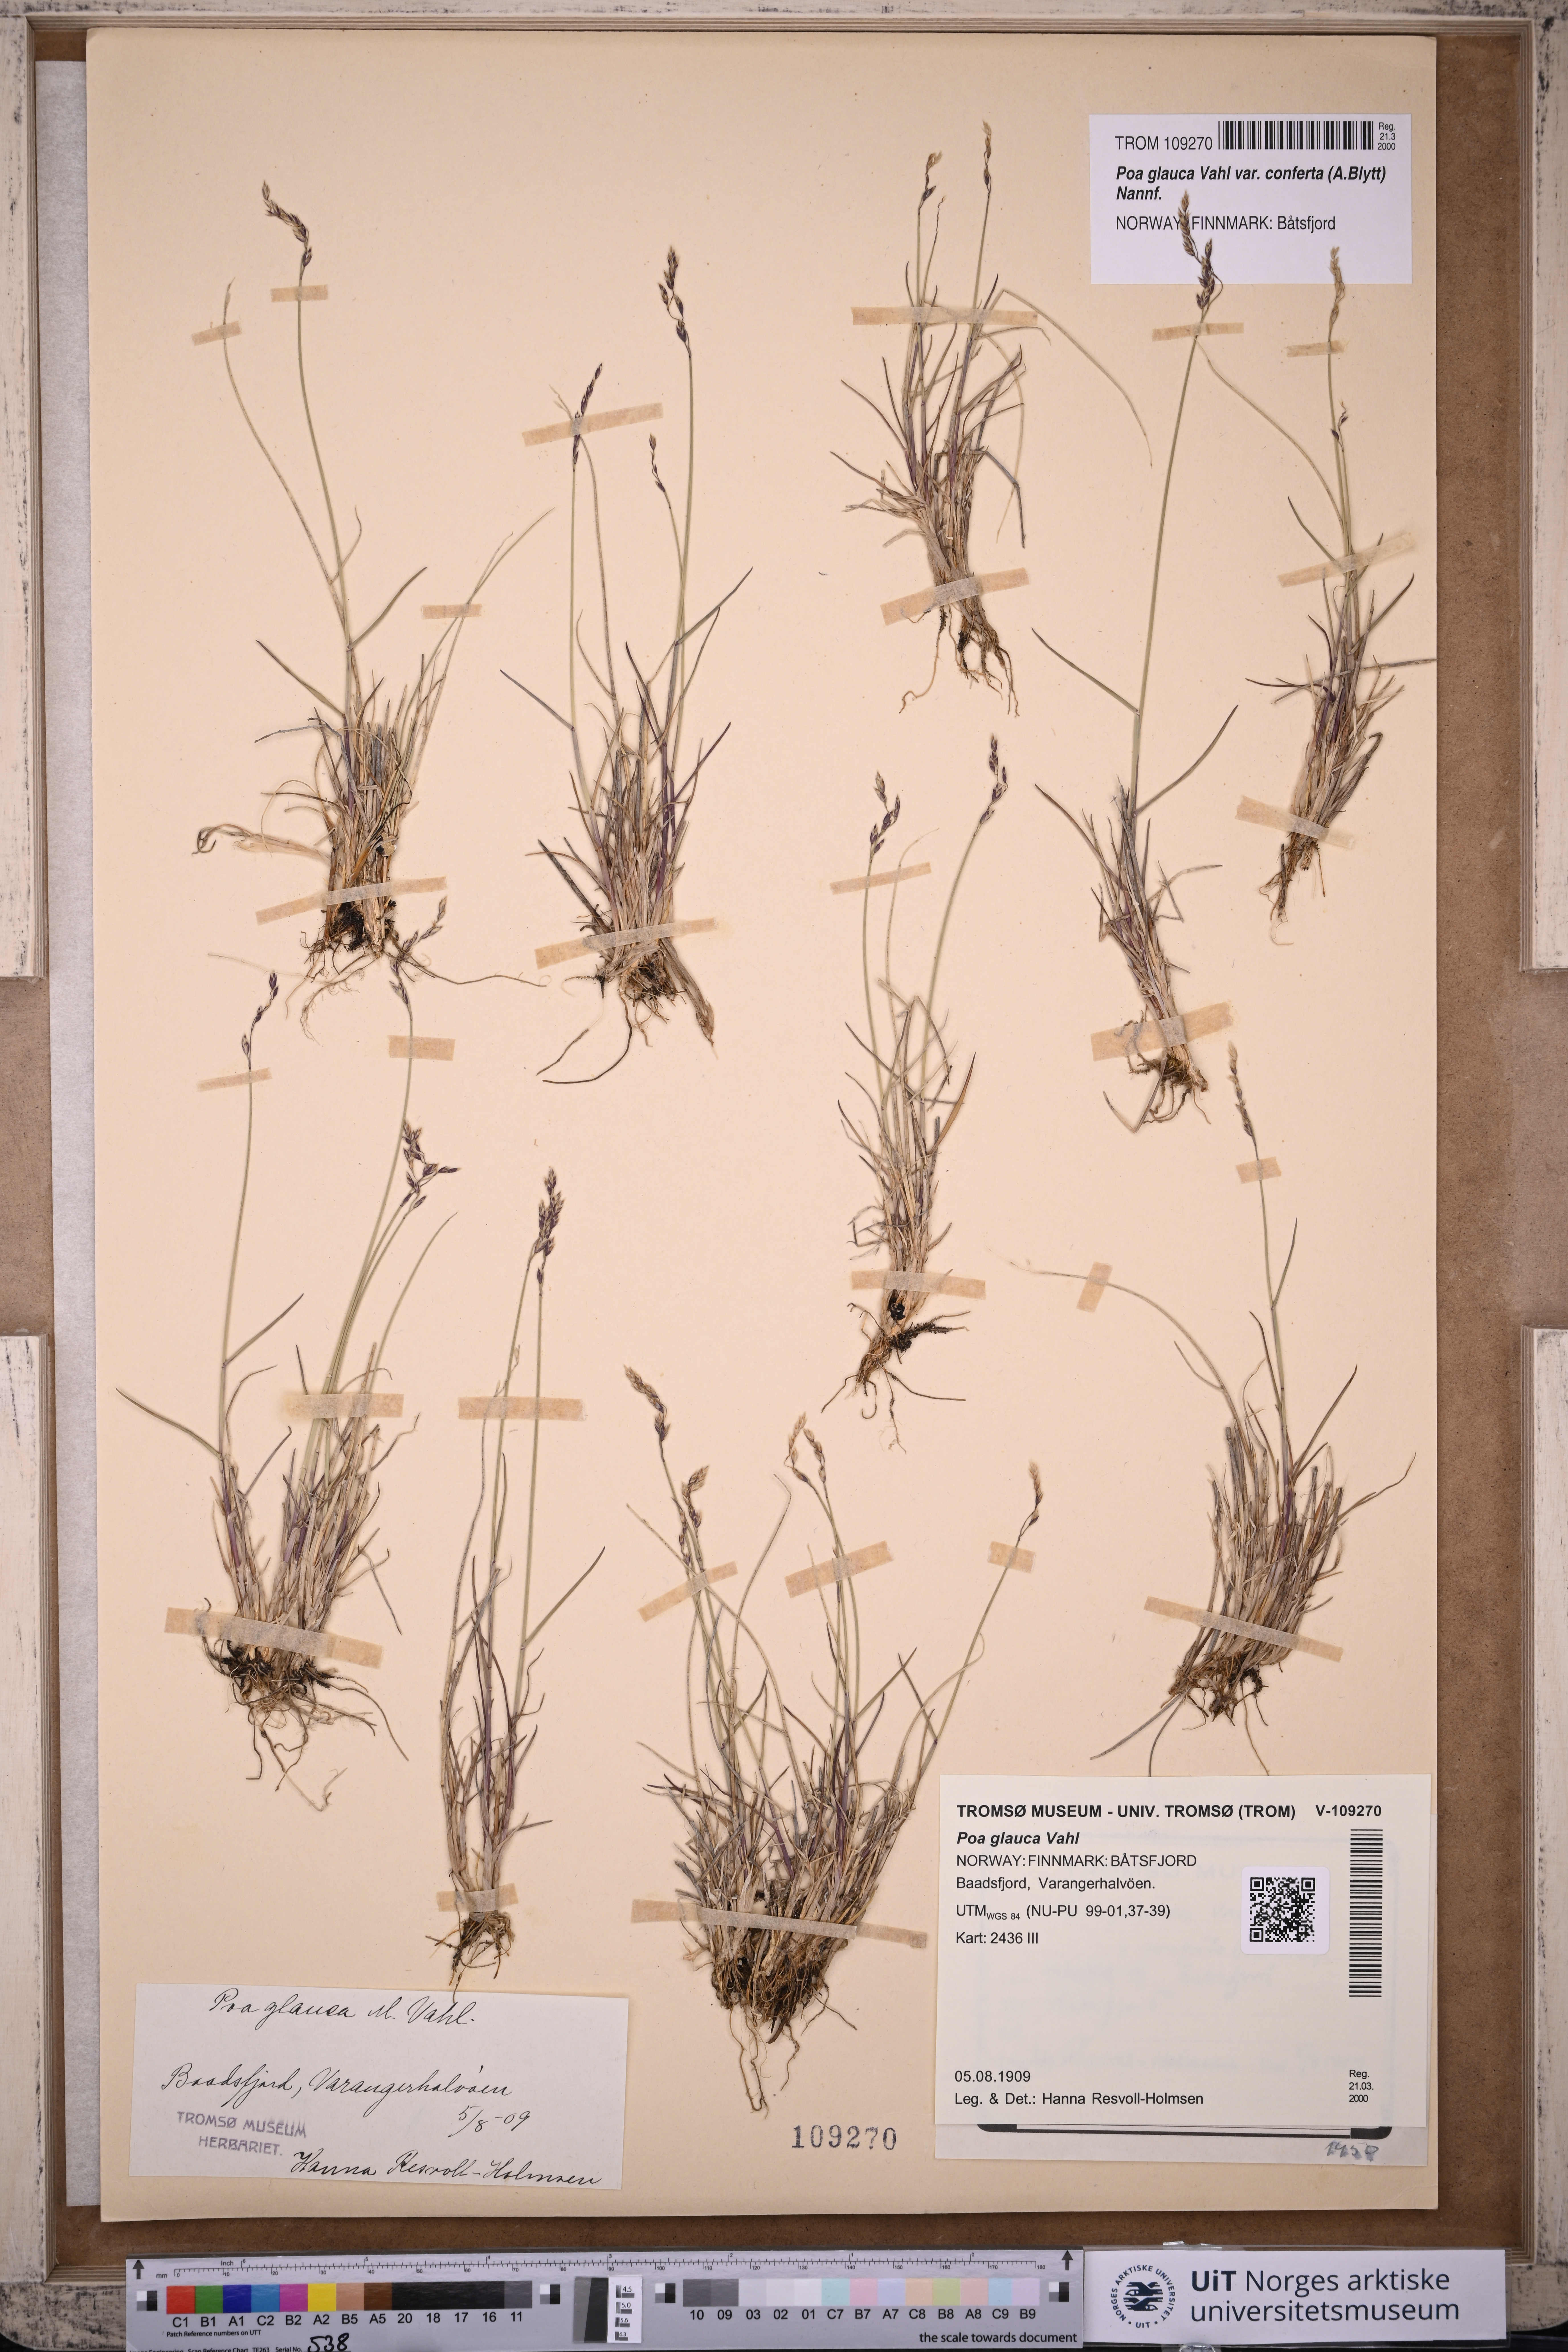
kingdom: Plantae
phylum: Tracheophyta
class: Liliopsida
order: Poales
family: Poaceae
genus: Poa
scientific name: Poa glauca
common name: Glaucous bluegrass
